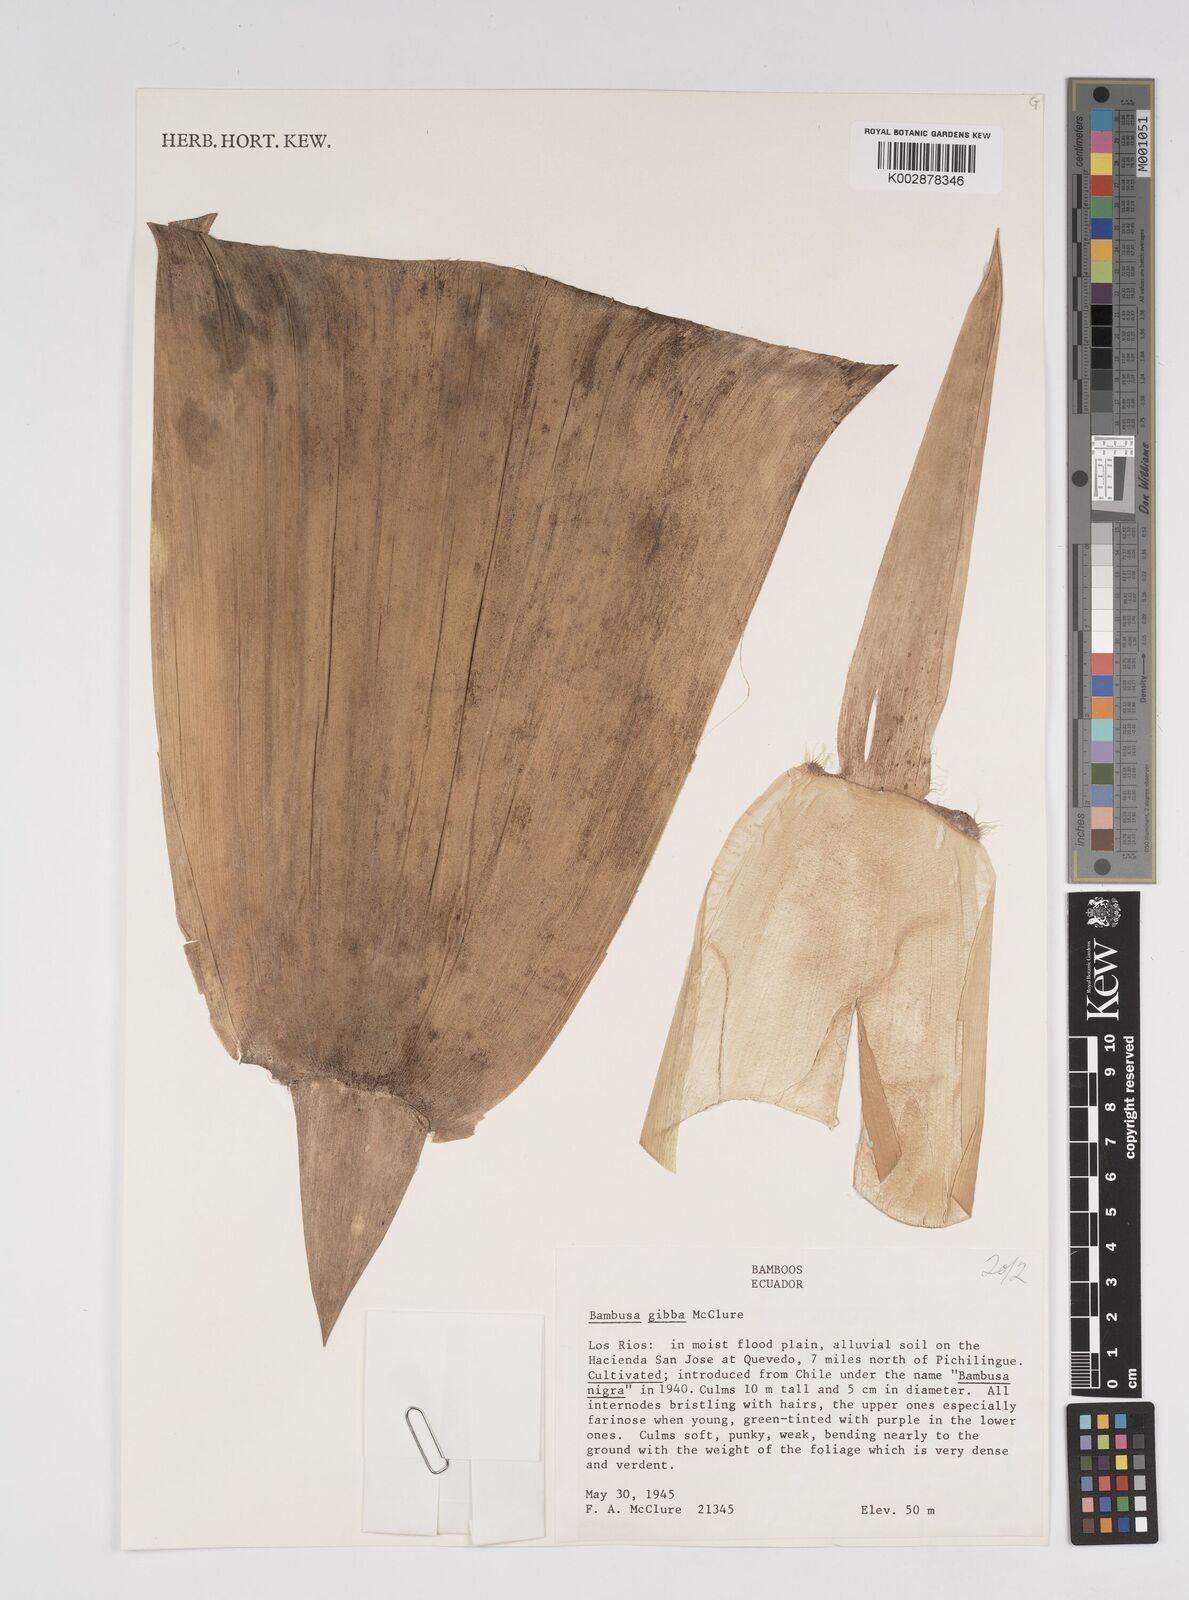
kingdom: Plantae
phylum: Tracheophyta
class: Liliopsida
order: Poales
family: Poaceae
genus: Bambusa
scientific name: Bambusa gibba
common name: Nai bamboo
